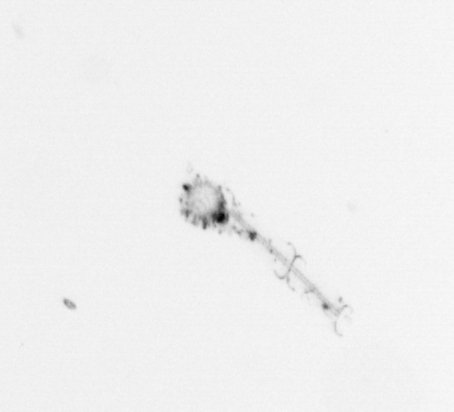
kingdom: Chromista
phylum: Ochrophyta
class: Bacillariophyceae
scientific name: Bacillariophyceae
